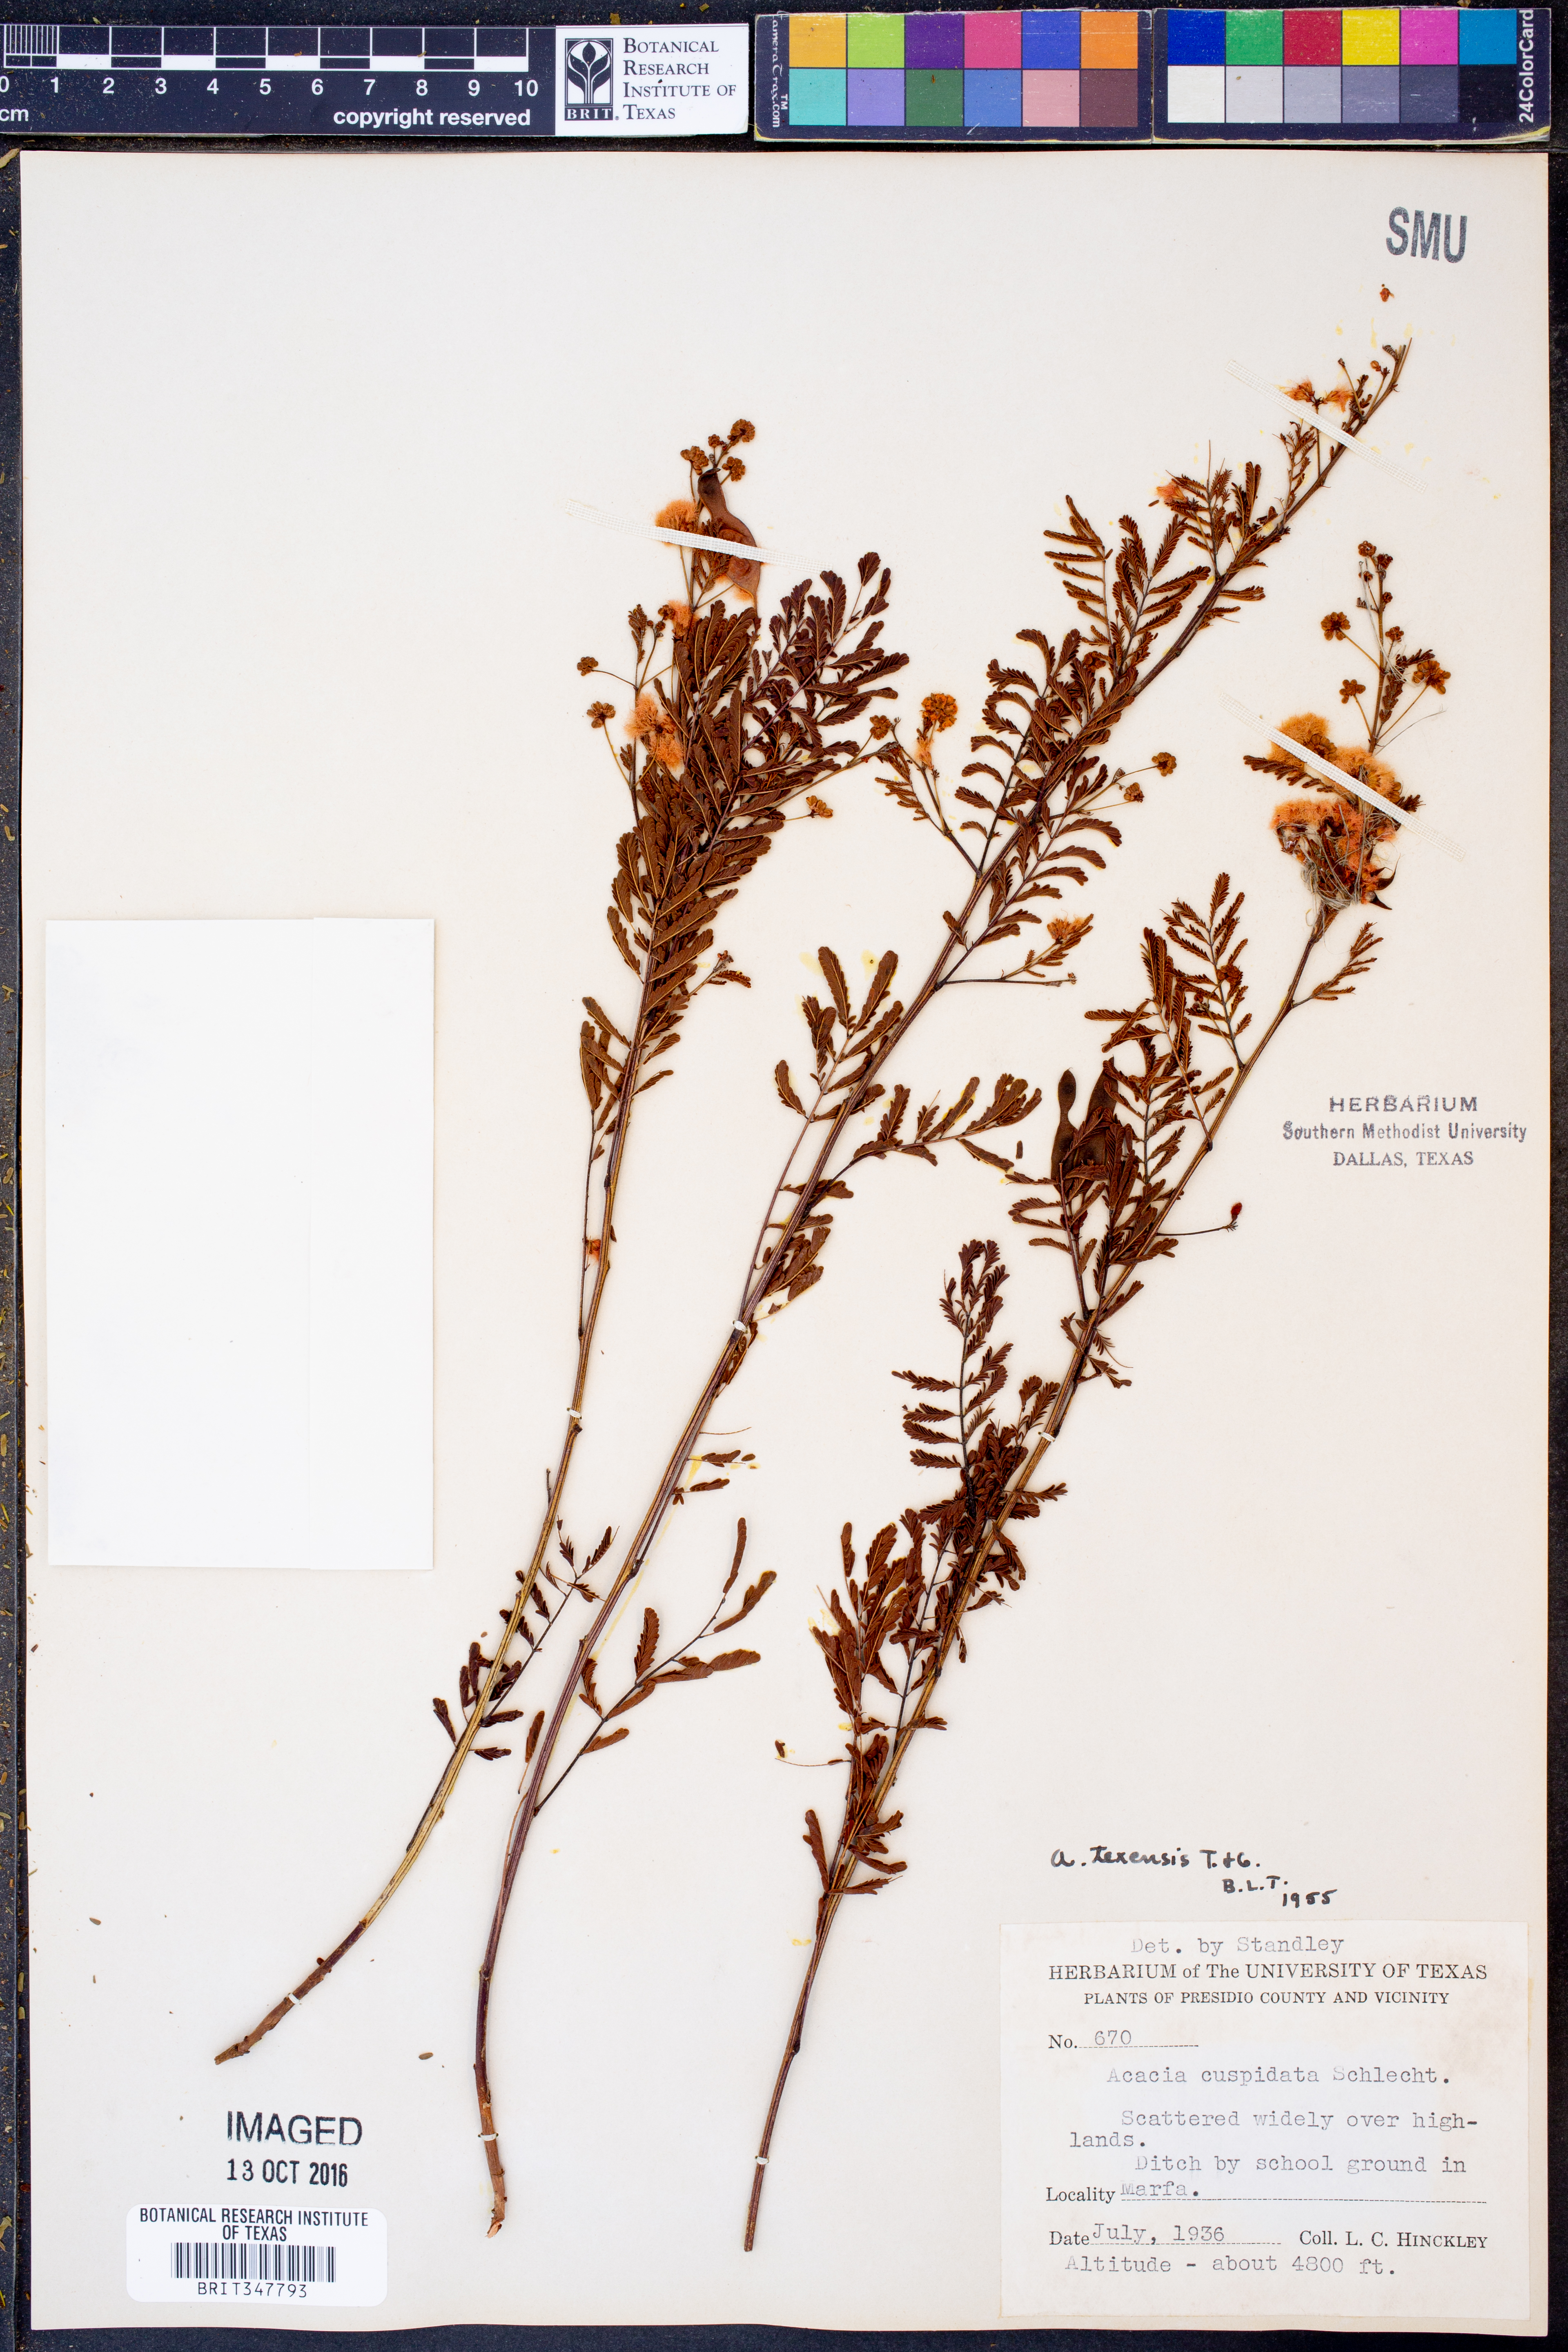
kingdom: Plantae
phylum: Tracheophyta
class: Magnoliopsida
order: Fabales
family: Fabaceae
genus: Acaciella
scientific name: Acaciella angustissima
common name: Prairie acacia
